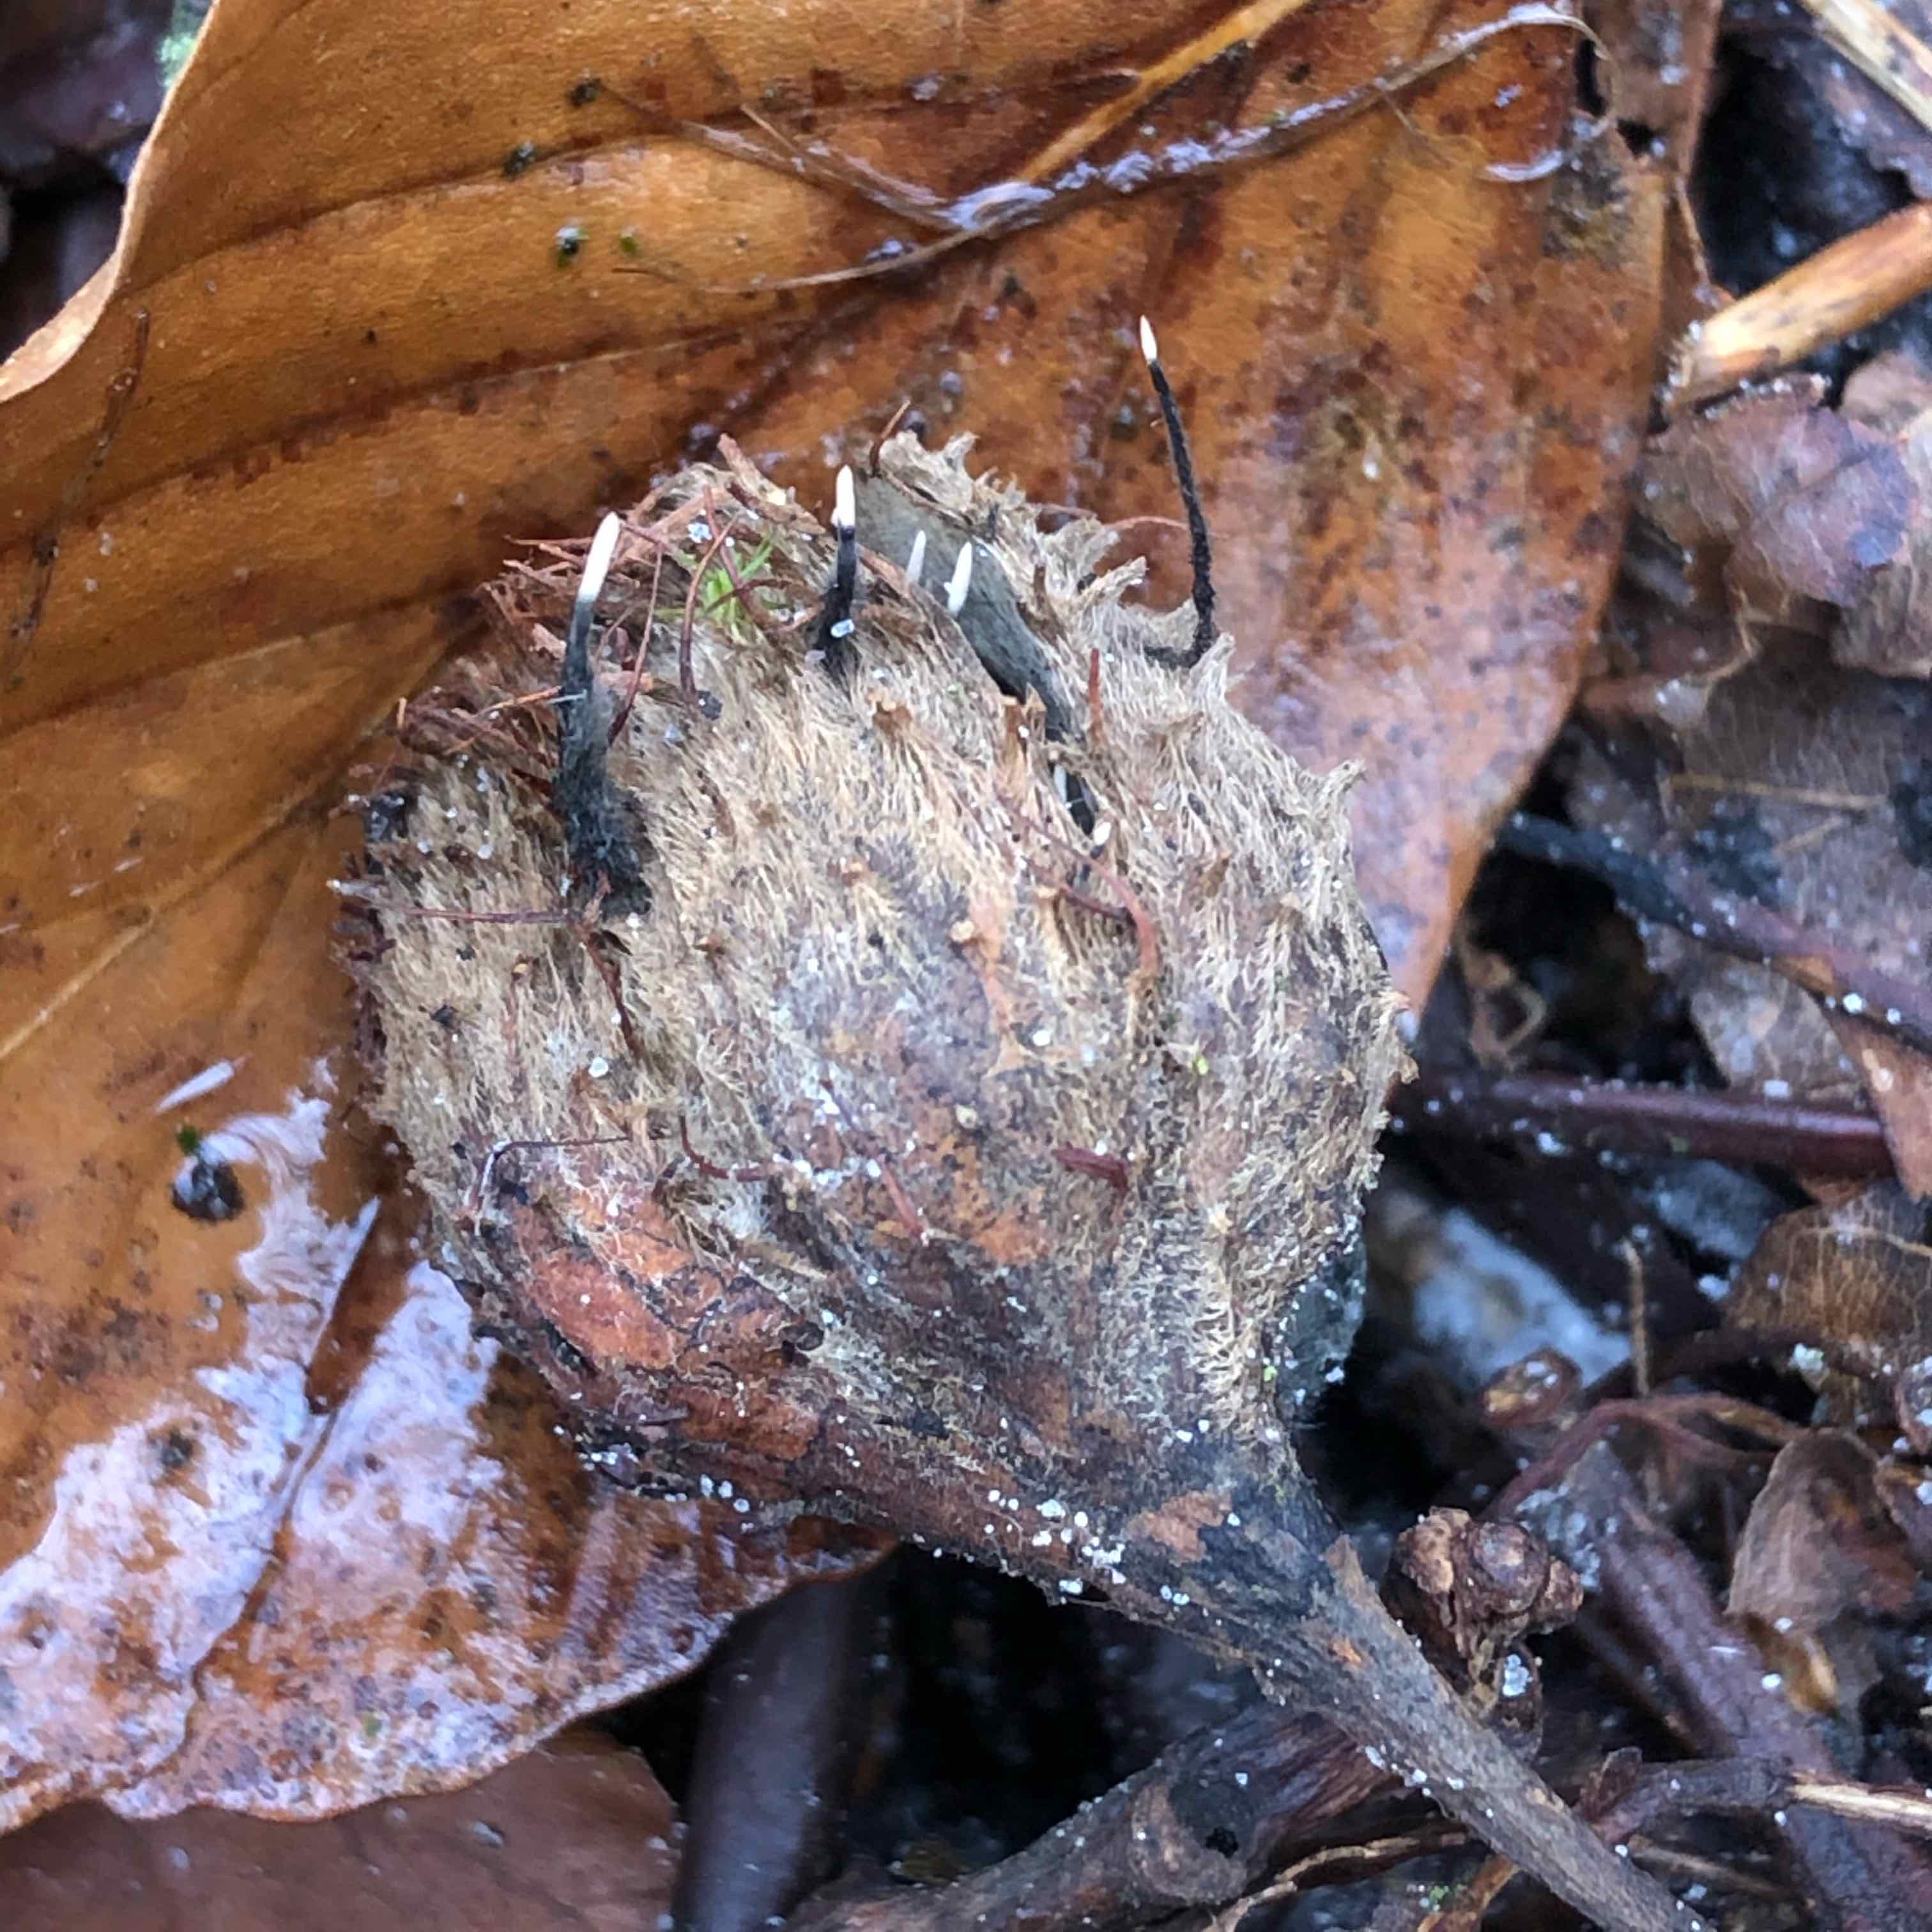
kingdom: Fungi
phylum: Ascomycota
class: Sordariomycetes
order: Xylariales
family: Xylariaceae
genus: Xylaria
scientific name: Xylaria carpophila
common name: bogskål-stødsvamp
